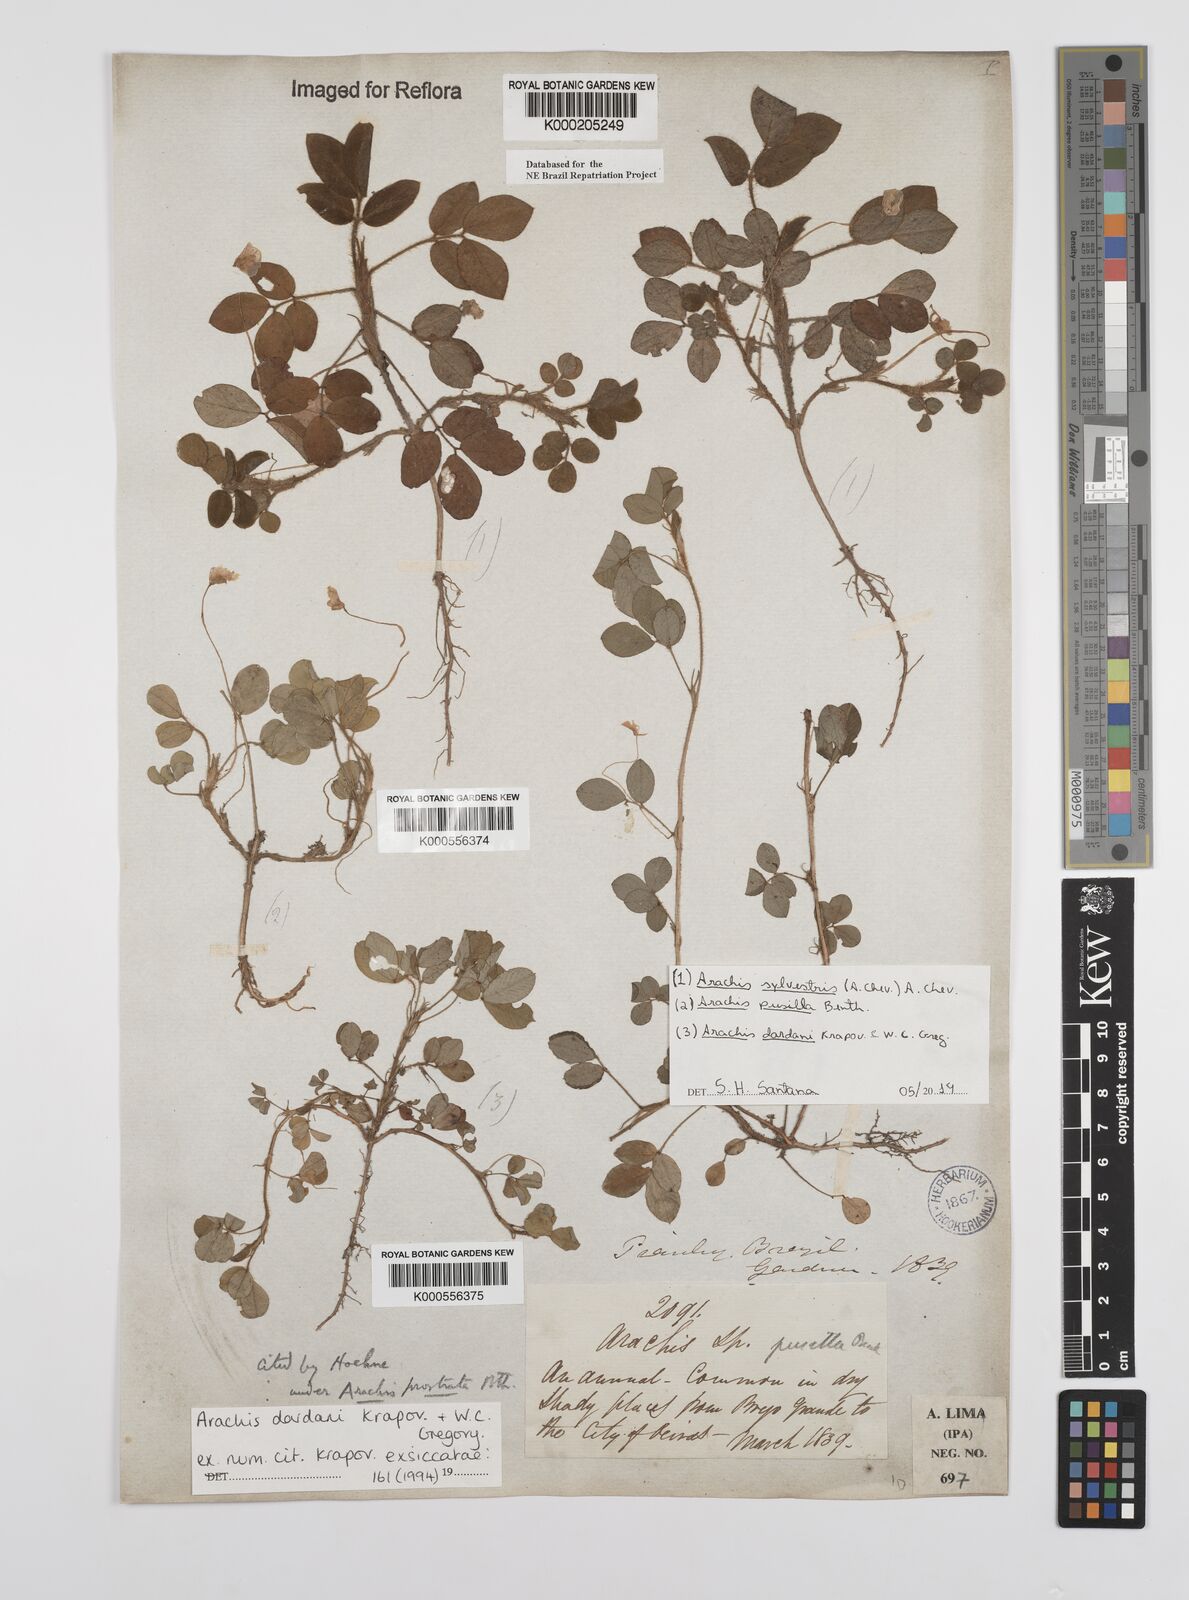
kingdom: Plantae
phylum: Tracheophyta
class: Magnoliopsida
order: Fabales
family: Fabaceae
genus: Arachis
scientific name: Arachis pusilla
